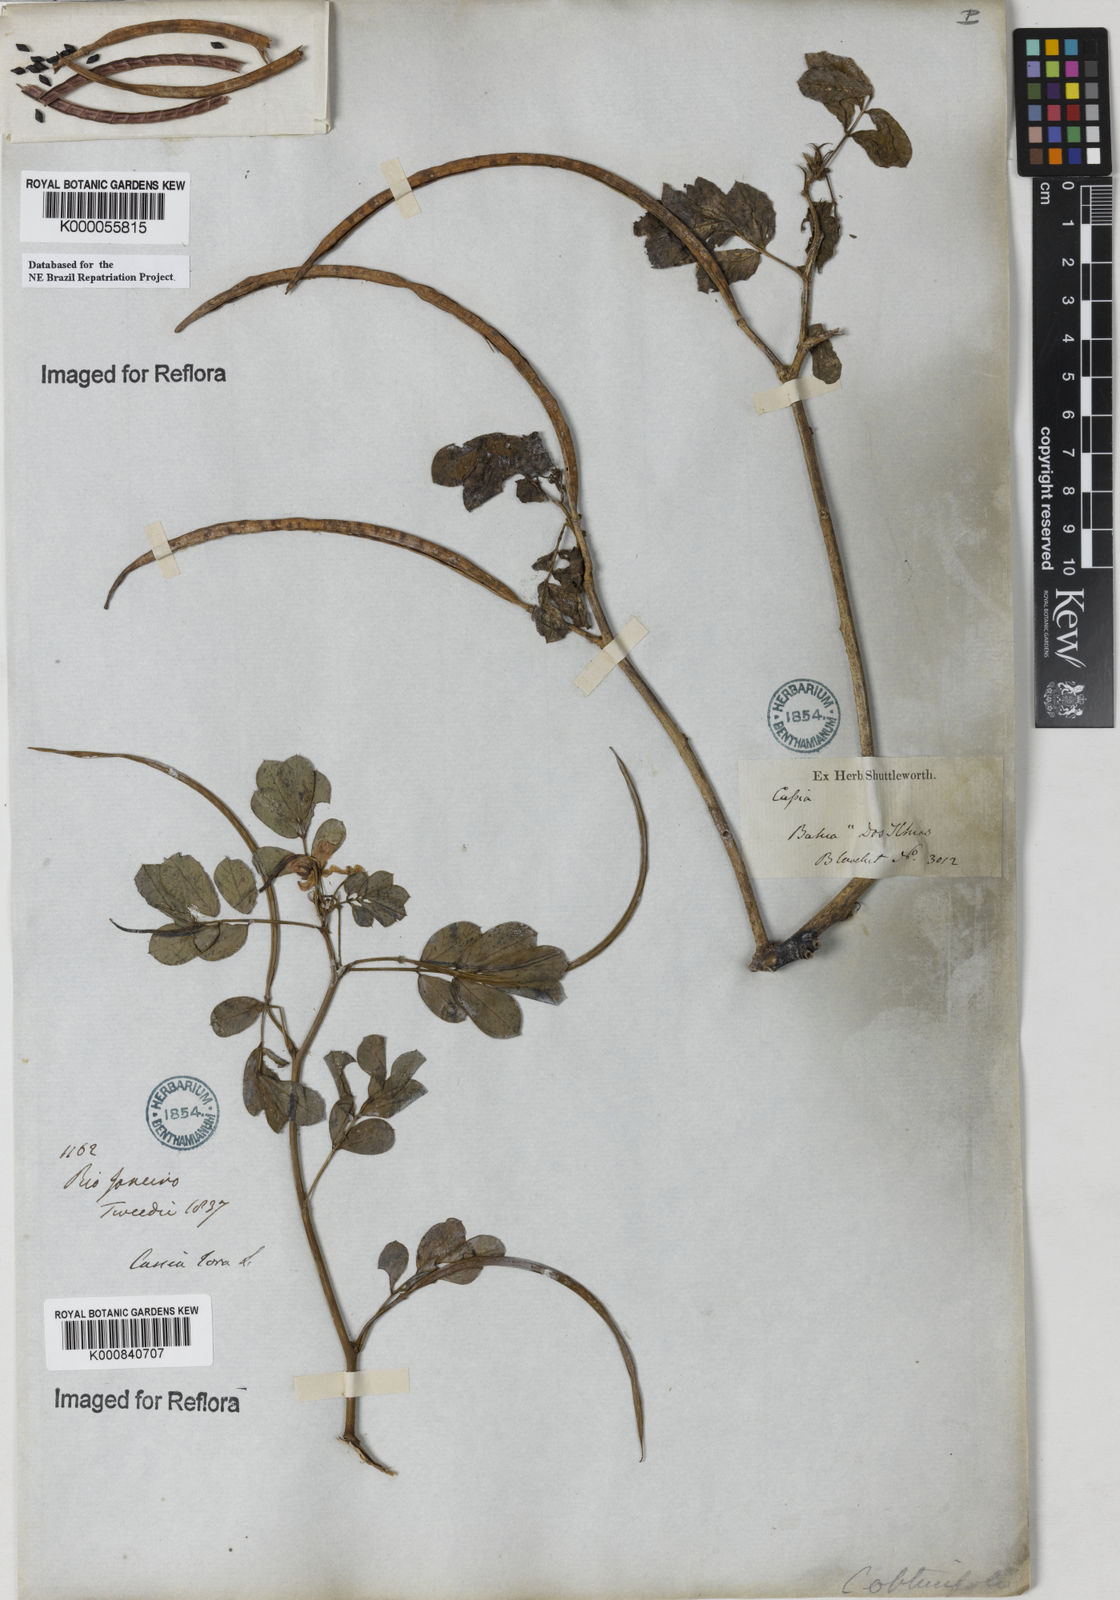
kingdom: Plantae
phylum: Tracheophyta
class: Magnoliopsida
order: Fabales
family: Fabaceae
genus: Senna
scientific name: Senna obtusifolia
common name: Java-bean
